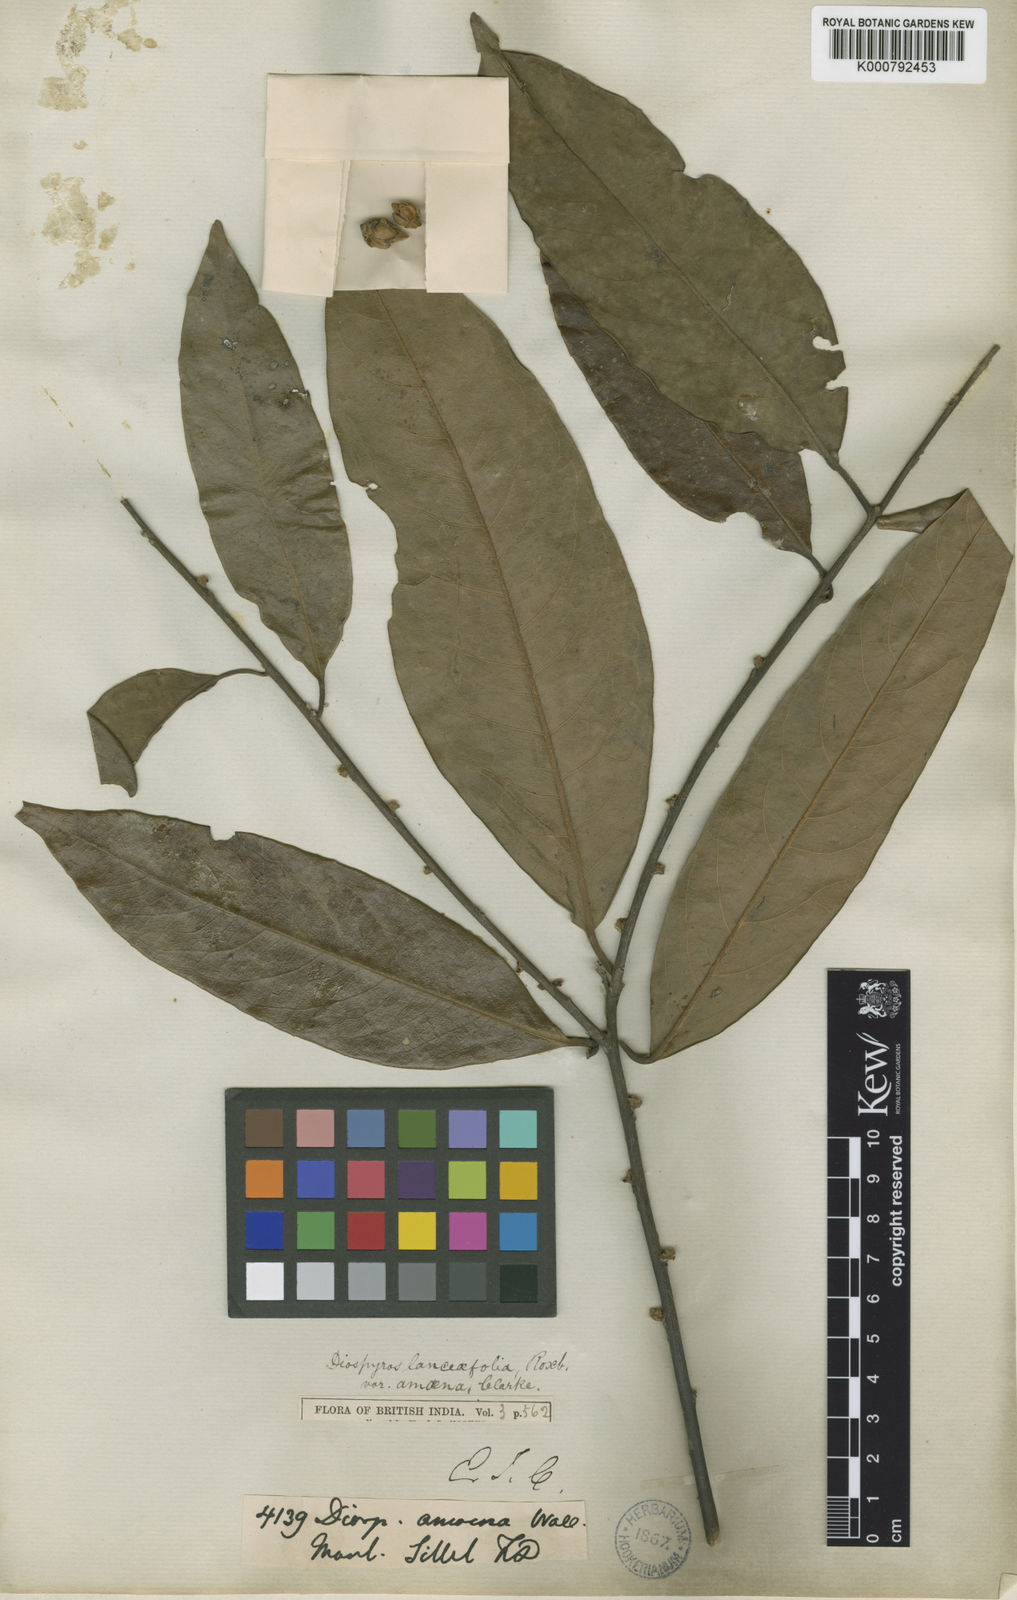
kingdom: Plantae
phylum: Tracheophyta
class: Magnoliopsida
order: Ericales
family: Ebenaceae
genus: Diospyros
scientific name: Diospyros lanceifolia
